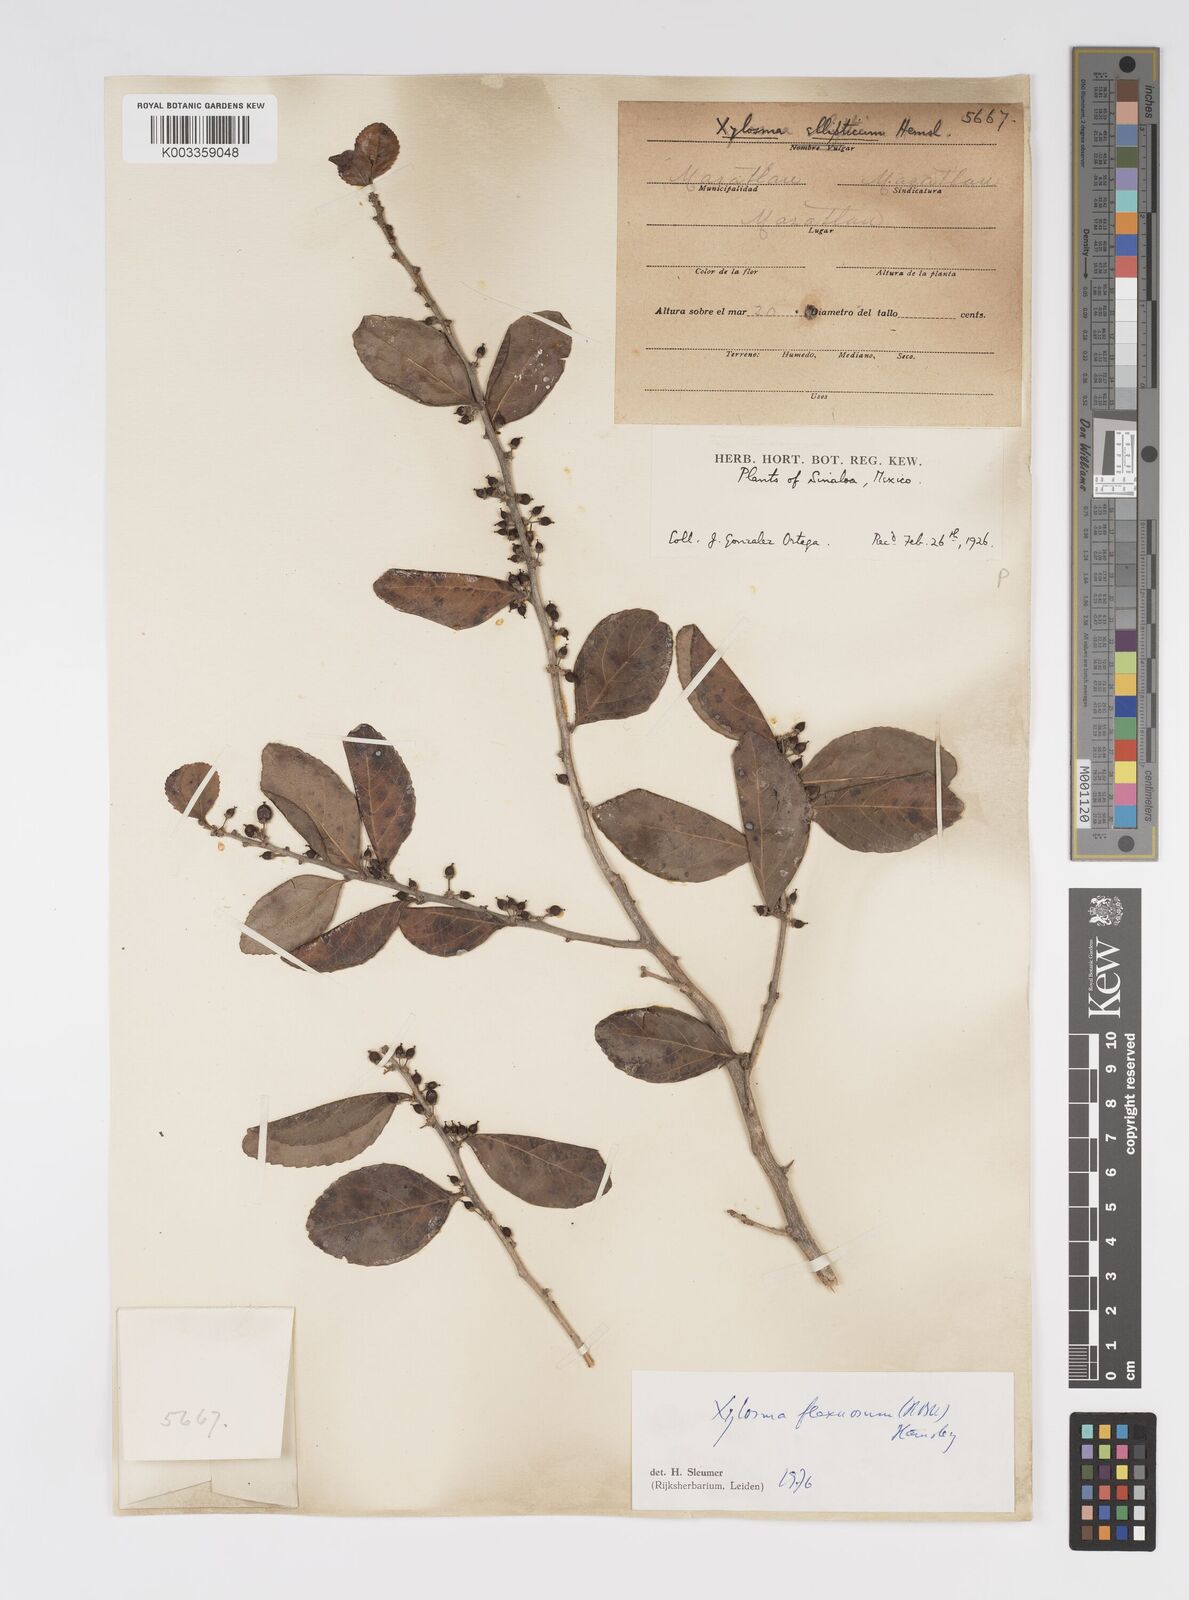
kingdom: Plantae
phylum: Tracheophyta
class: Magnoliopsida
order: Malpighiales
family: Salicaceae
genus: Xylosma
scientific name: Xylosma flexuosa
